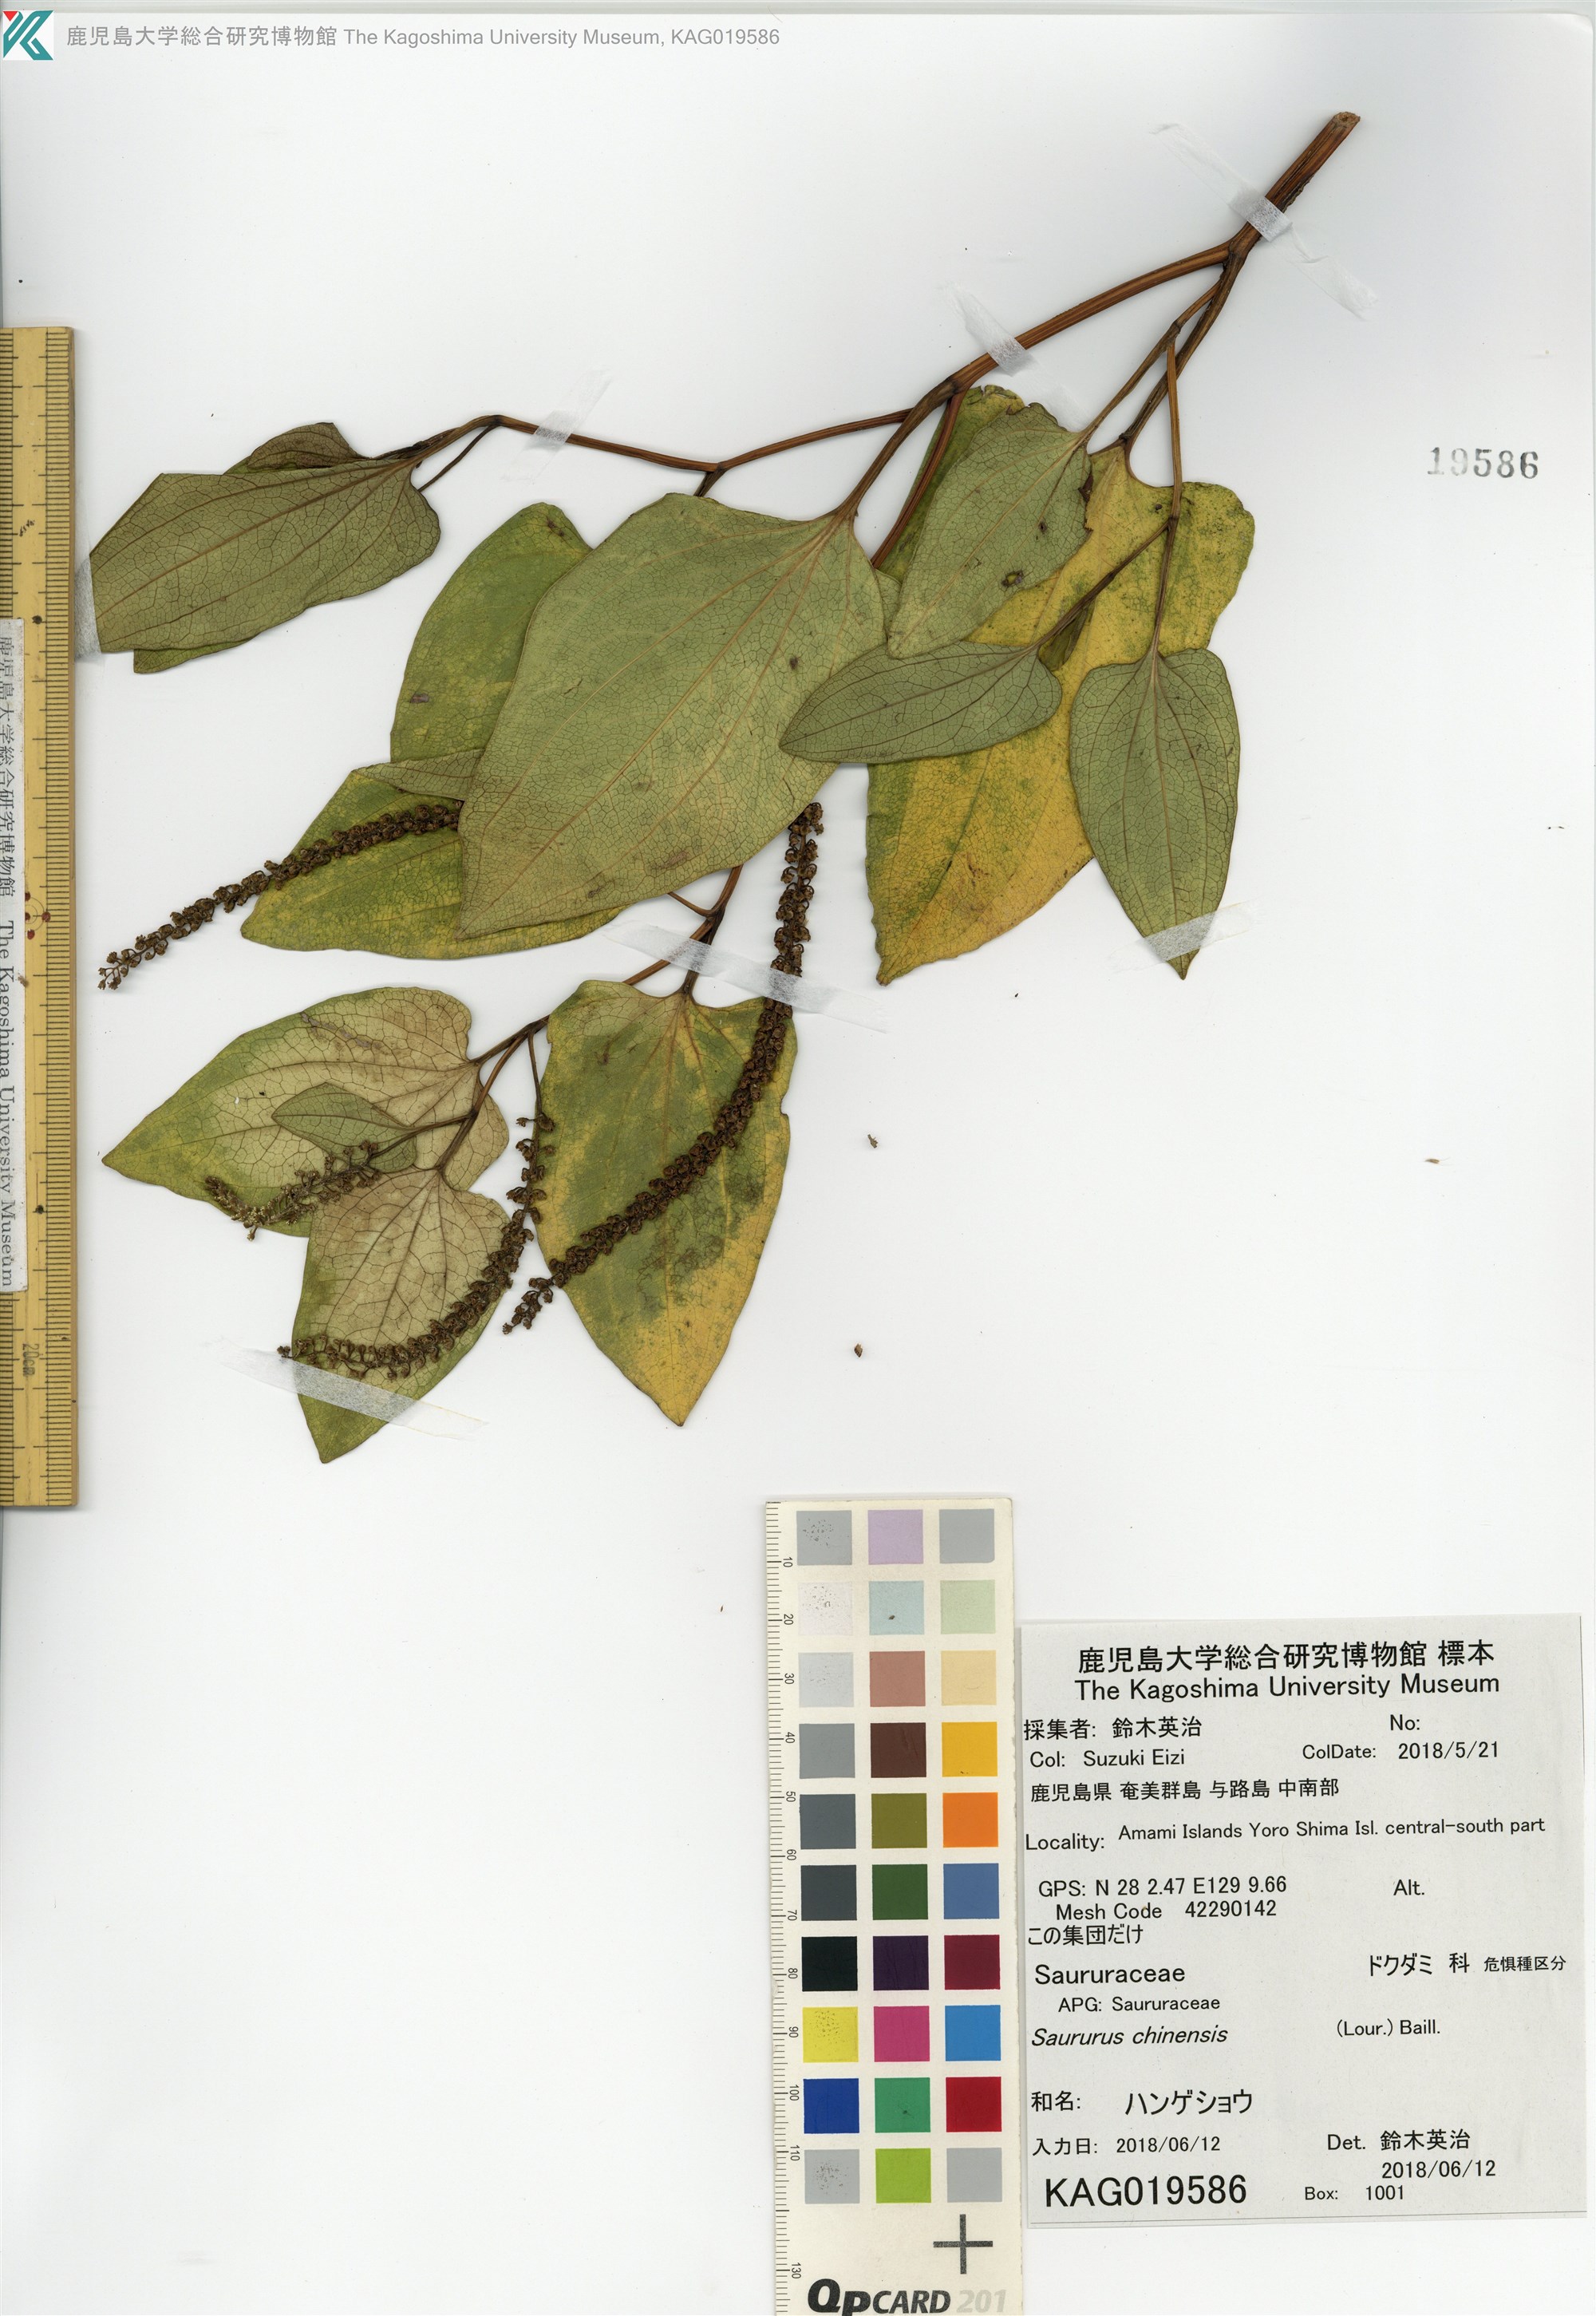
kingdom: Plantae
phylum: Tracheophyta
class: Magnoliopsida
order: Piperales
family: Saururaceae
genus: Saururus
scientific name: Saururus chinensis
